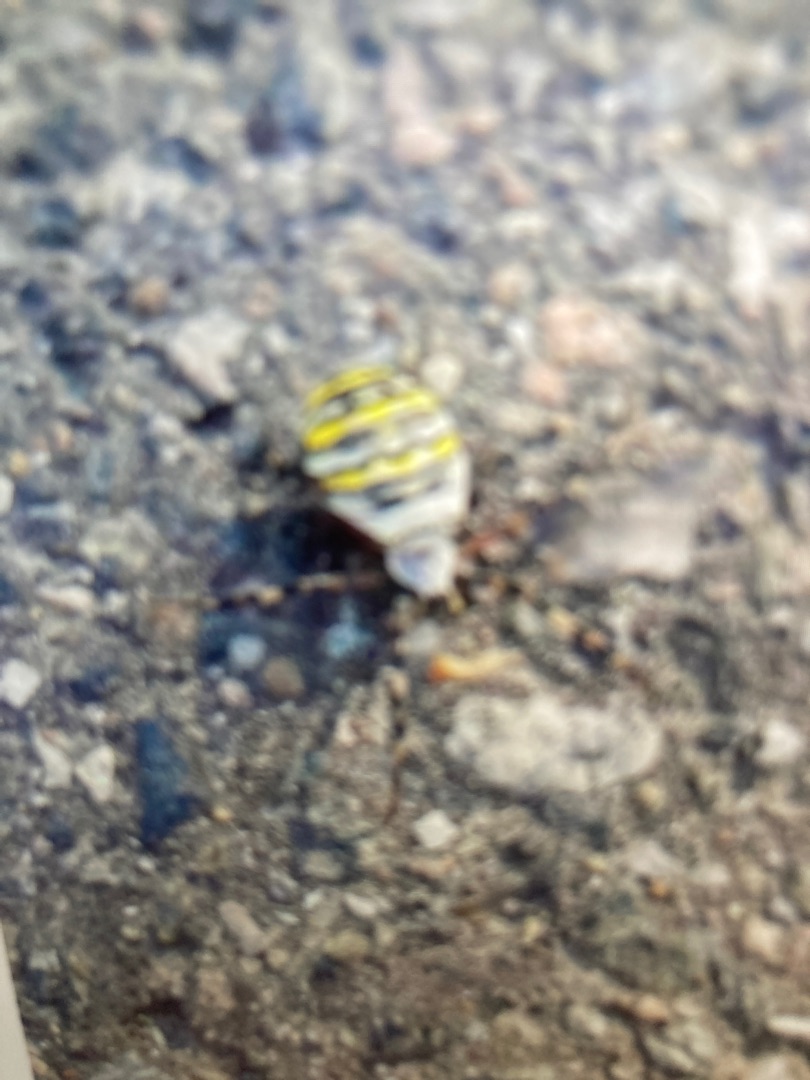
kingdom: Animalia
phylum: Arthropoda
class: Arachnida
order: Araneae
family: Araneidae
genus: Argiope
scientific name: Argiope bruennichi
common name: Hvepseedderkop
